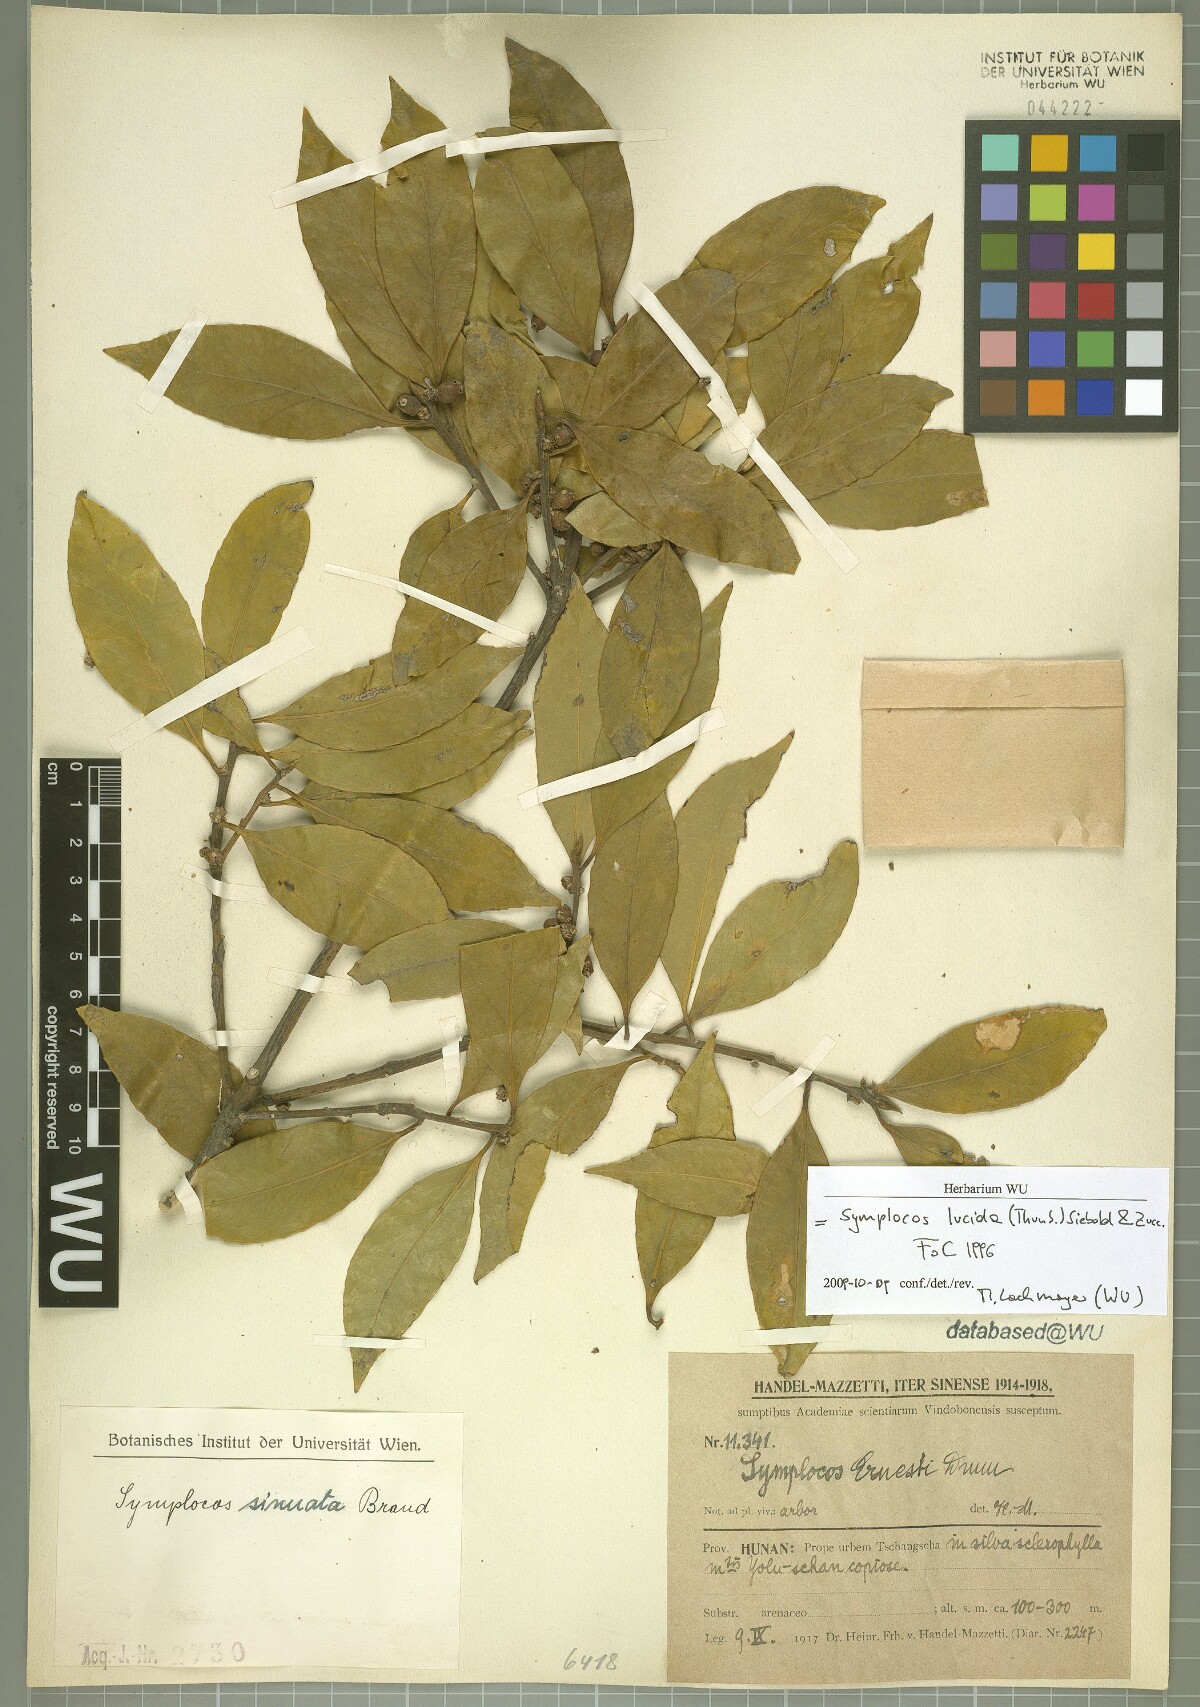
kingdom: Plantae
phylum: Tracheophyta
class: Magnoliopsida
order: Ericales
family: Symplocaceae
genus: Symplocos
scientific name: Symplocos nakaharae
